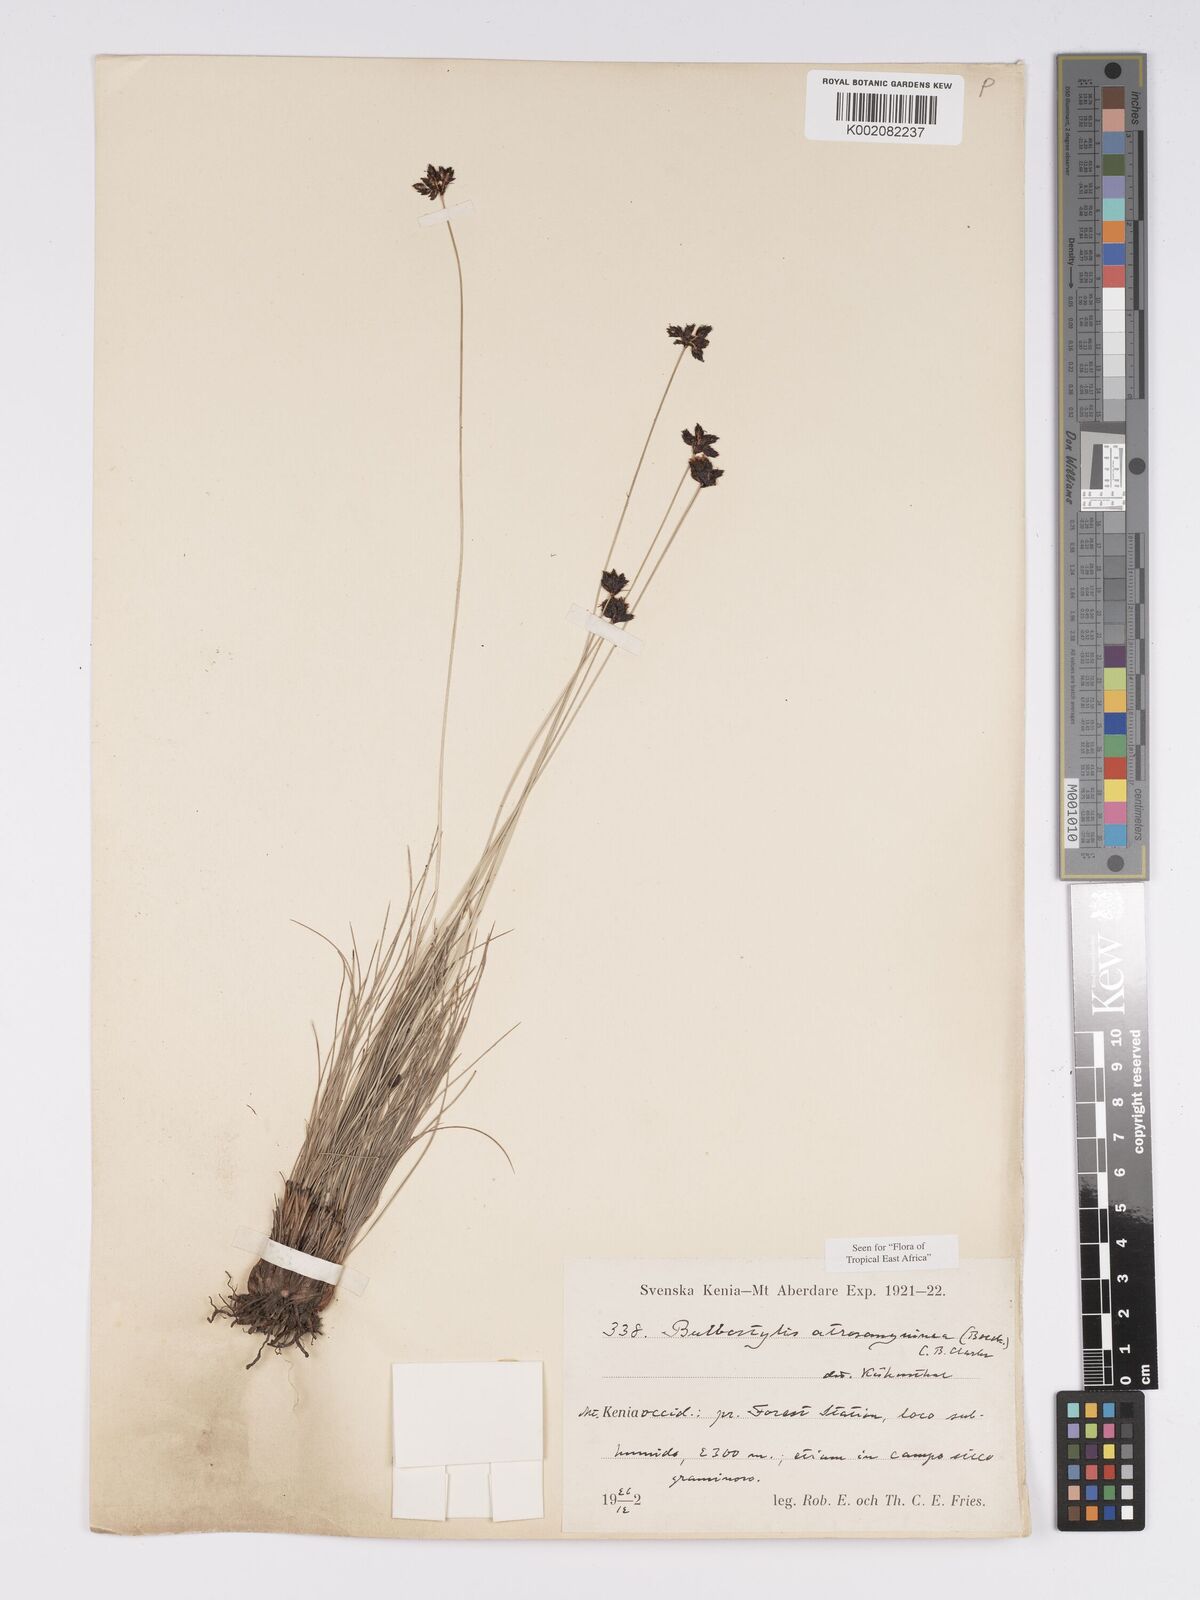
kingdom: Plantae
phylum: Tracheophyta
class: Liliopsida
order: Poales
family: Cyperaceae
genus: Bulbostylis
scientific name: Bulbostylis atrosanguinea
